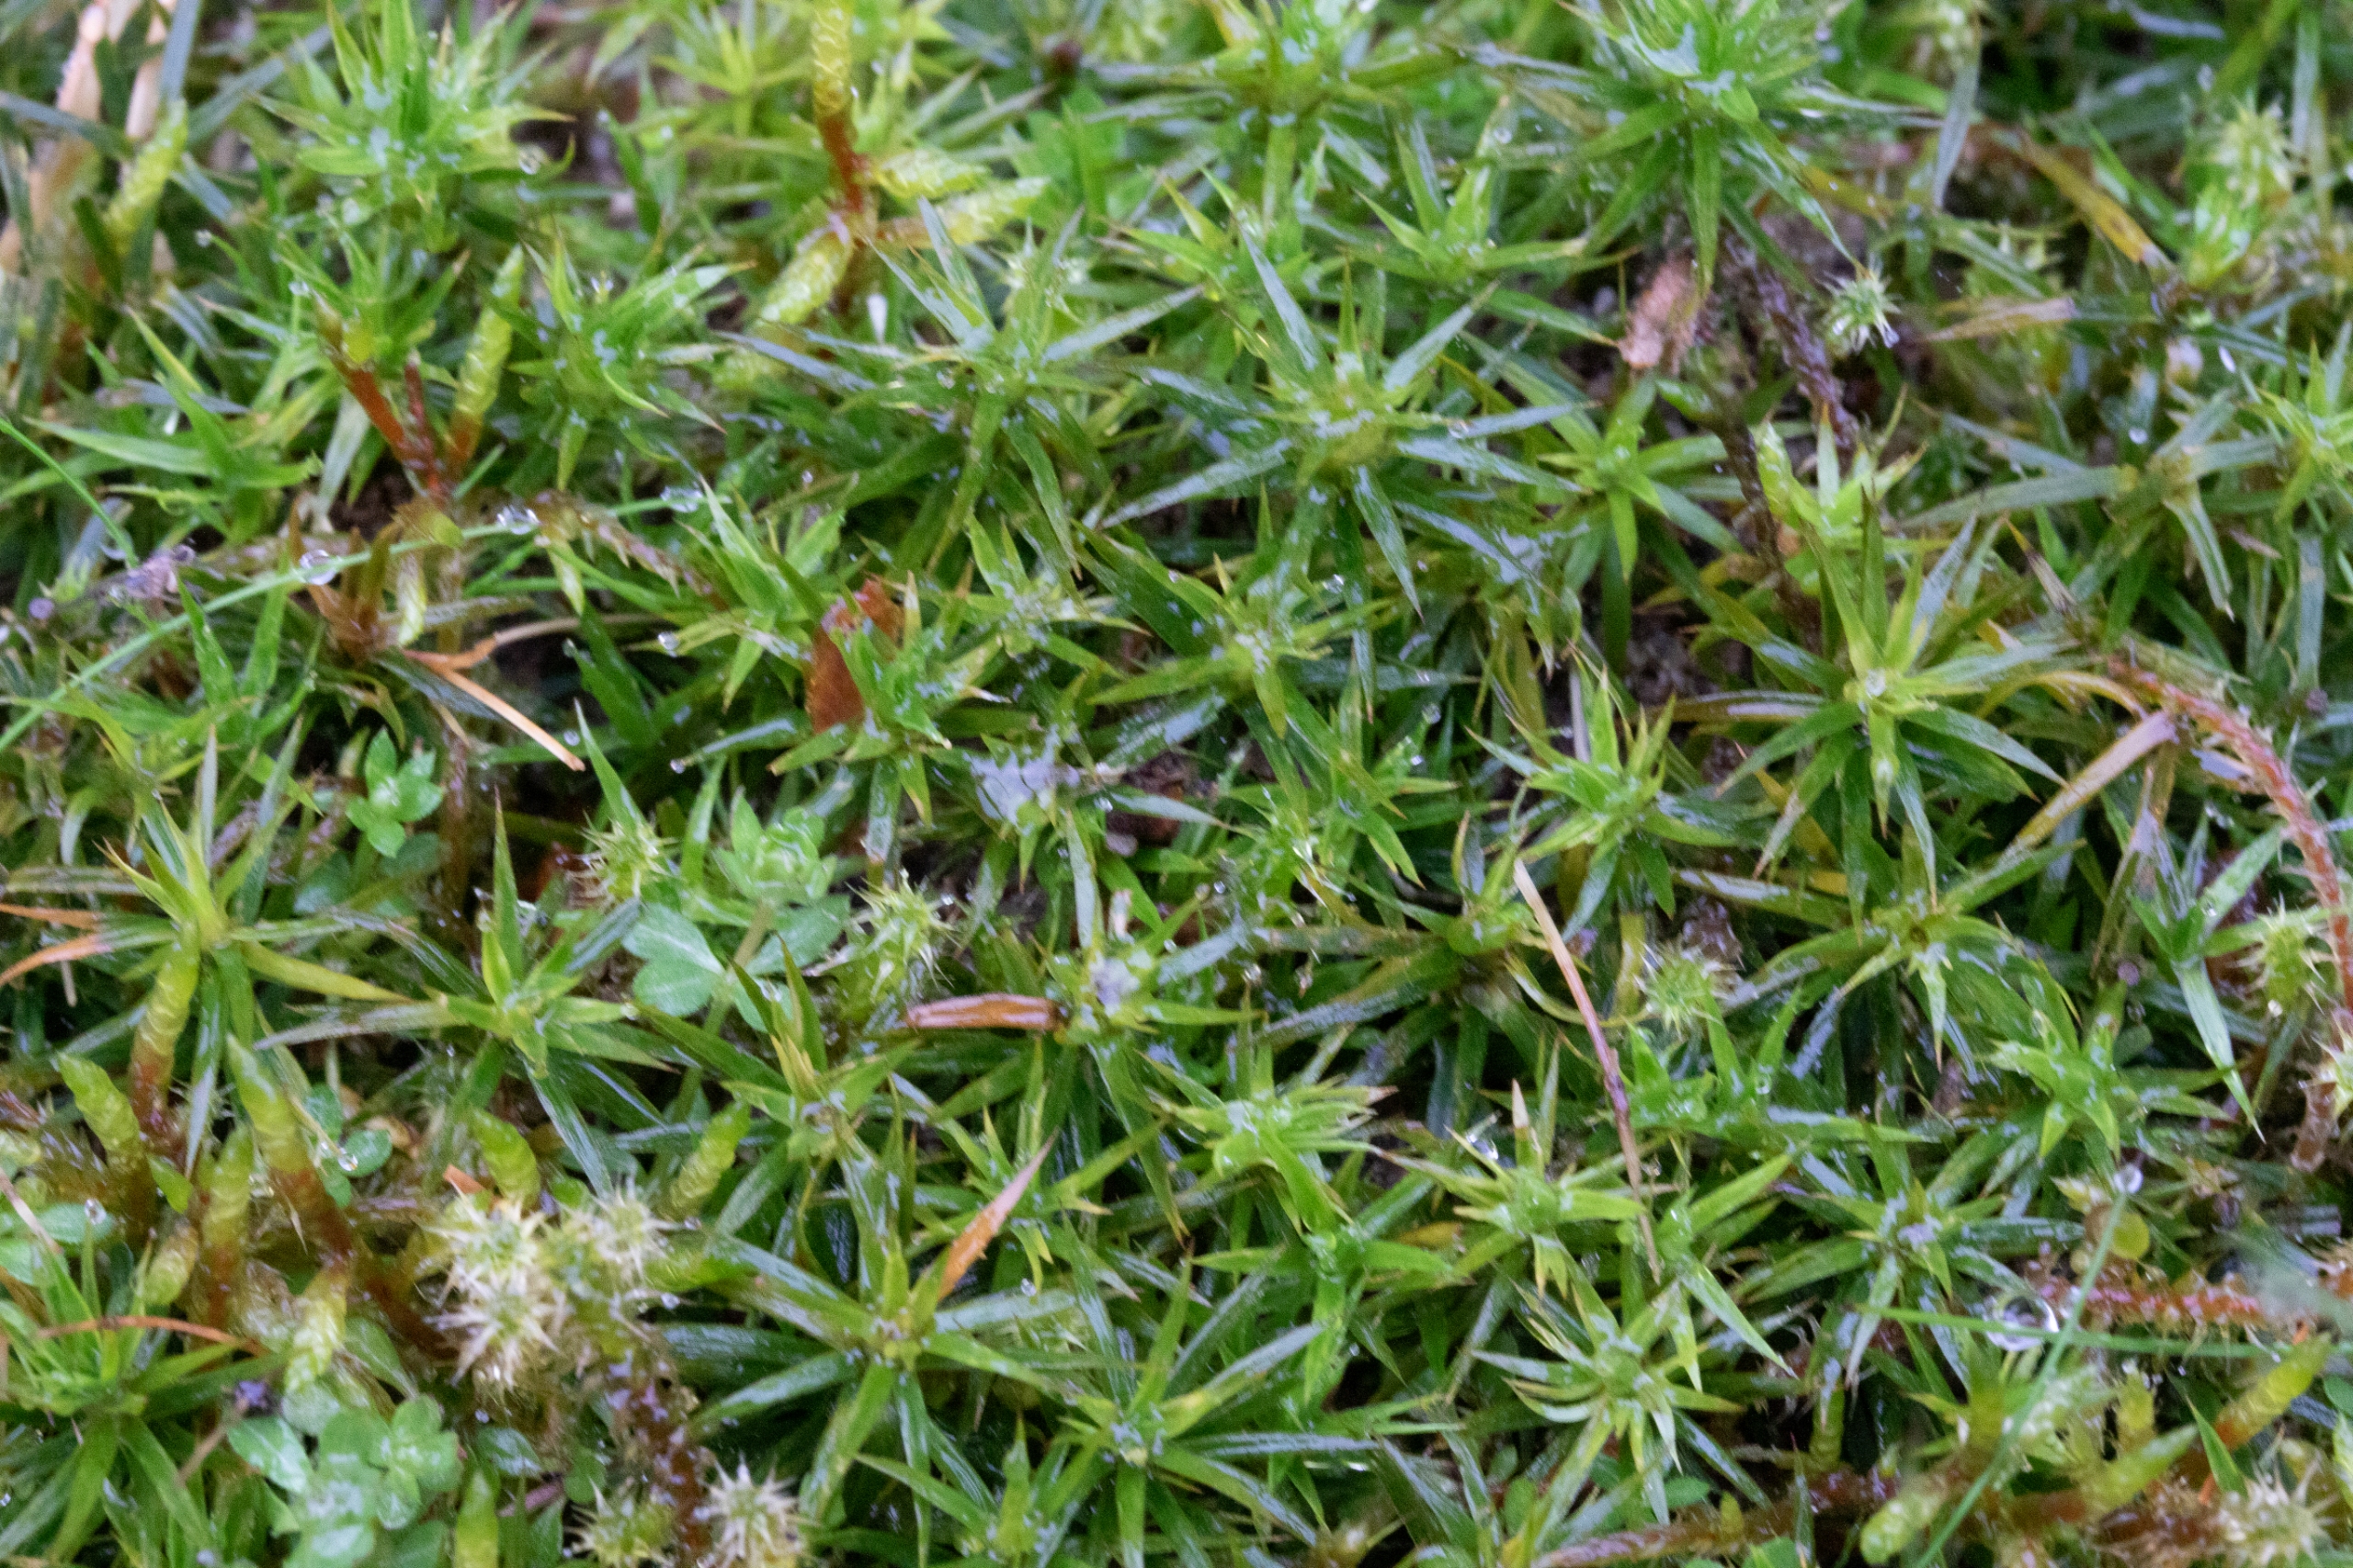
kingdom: Plantae
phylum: Bryophyta
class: Polytrichopsida
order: Polytrichales
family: Polytrichaceae
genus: Polytrichum
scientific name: Polytrichum formosum
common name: Skov-jomfruhår
